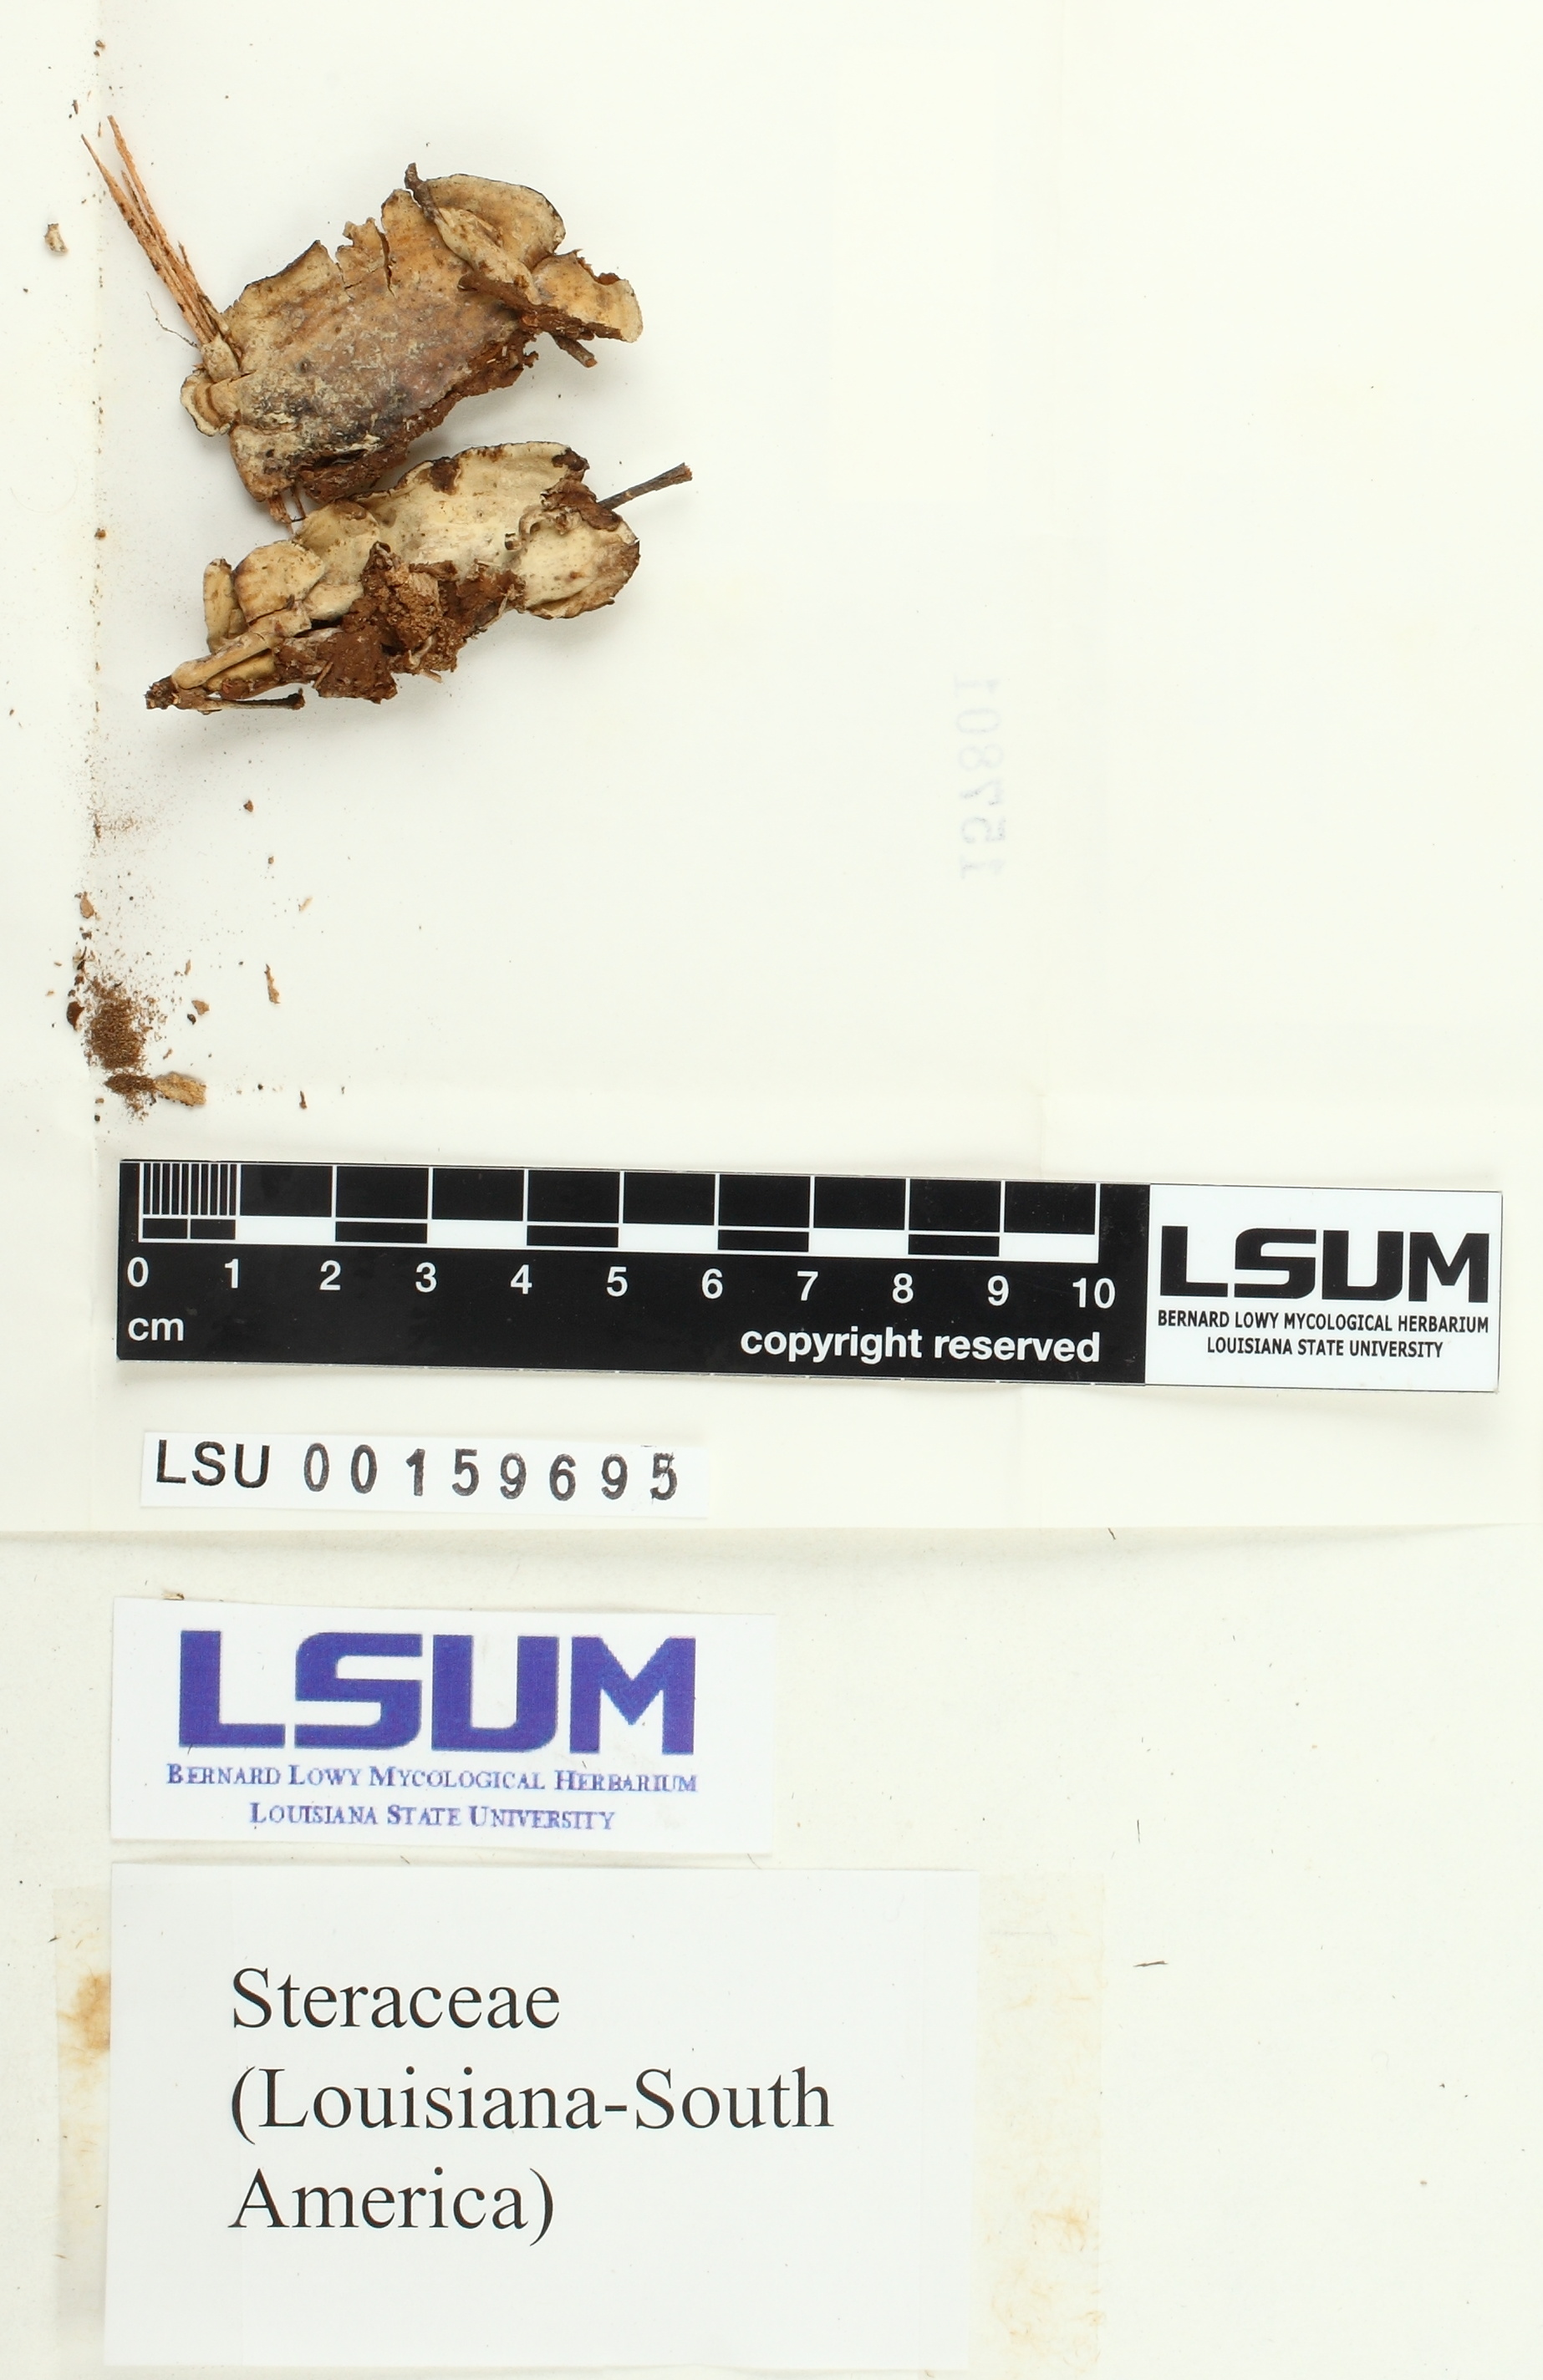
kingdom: Fungi
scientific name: Fungi
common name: Fungi
